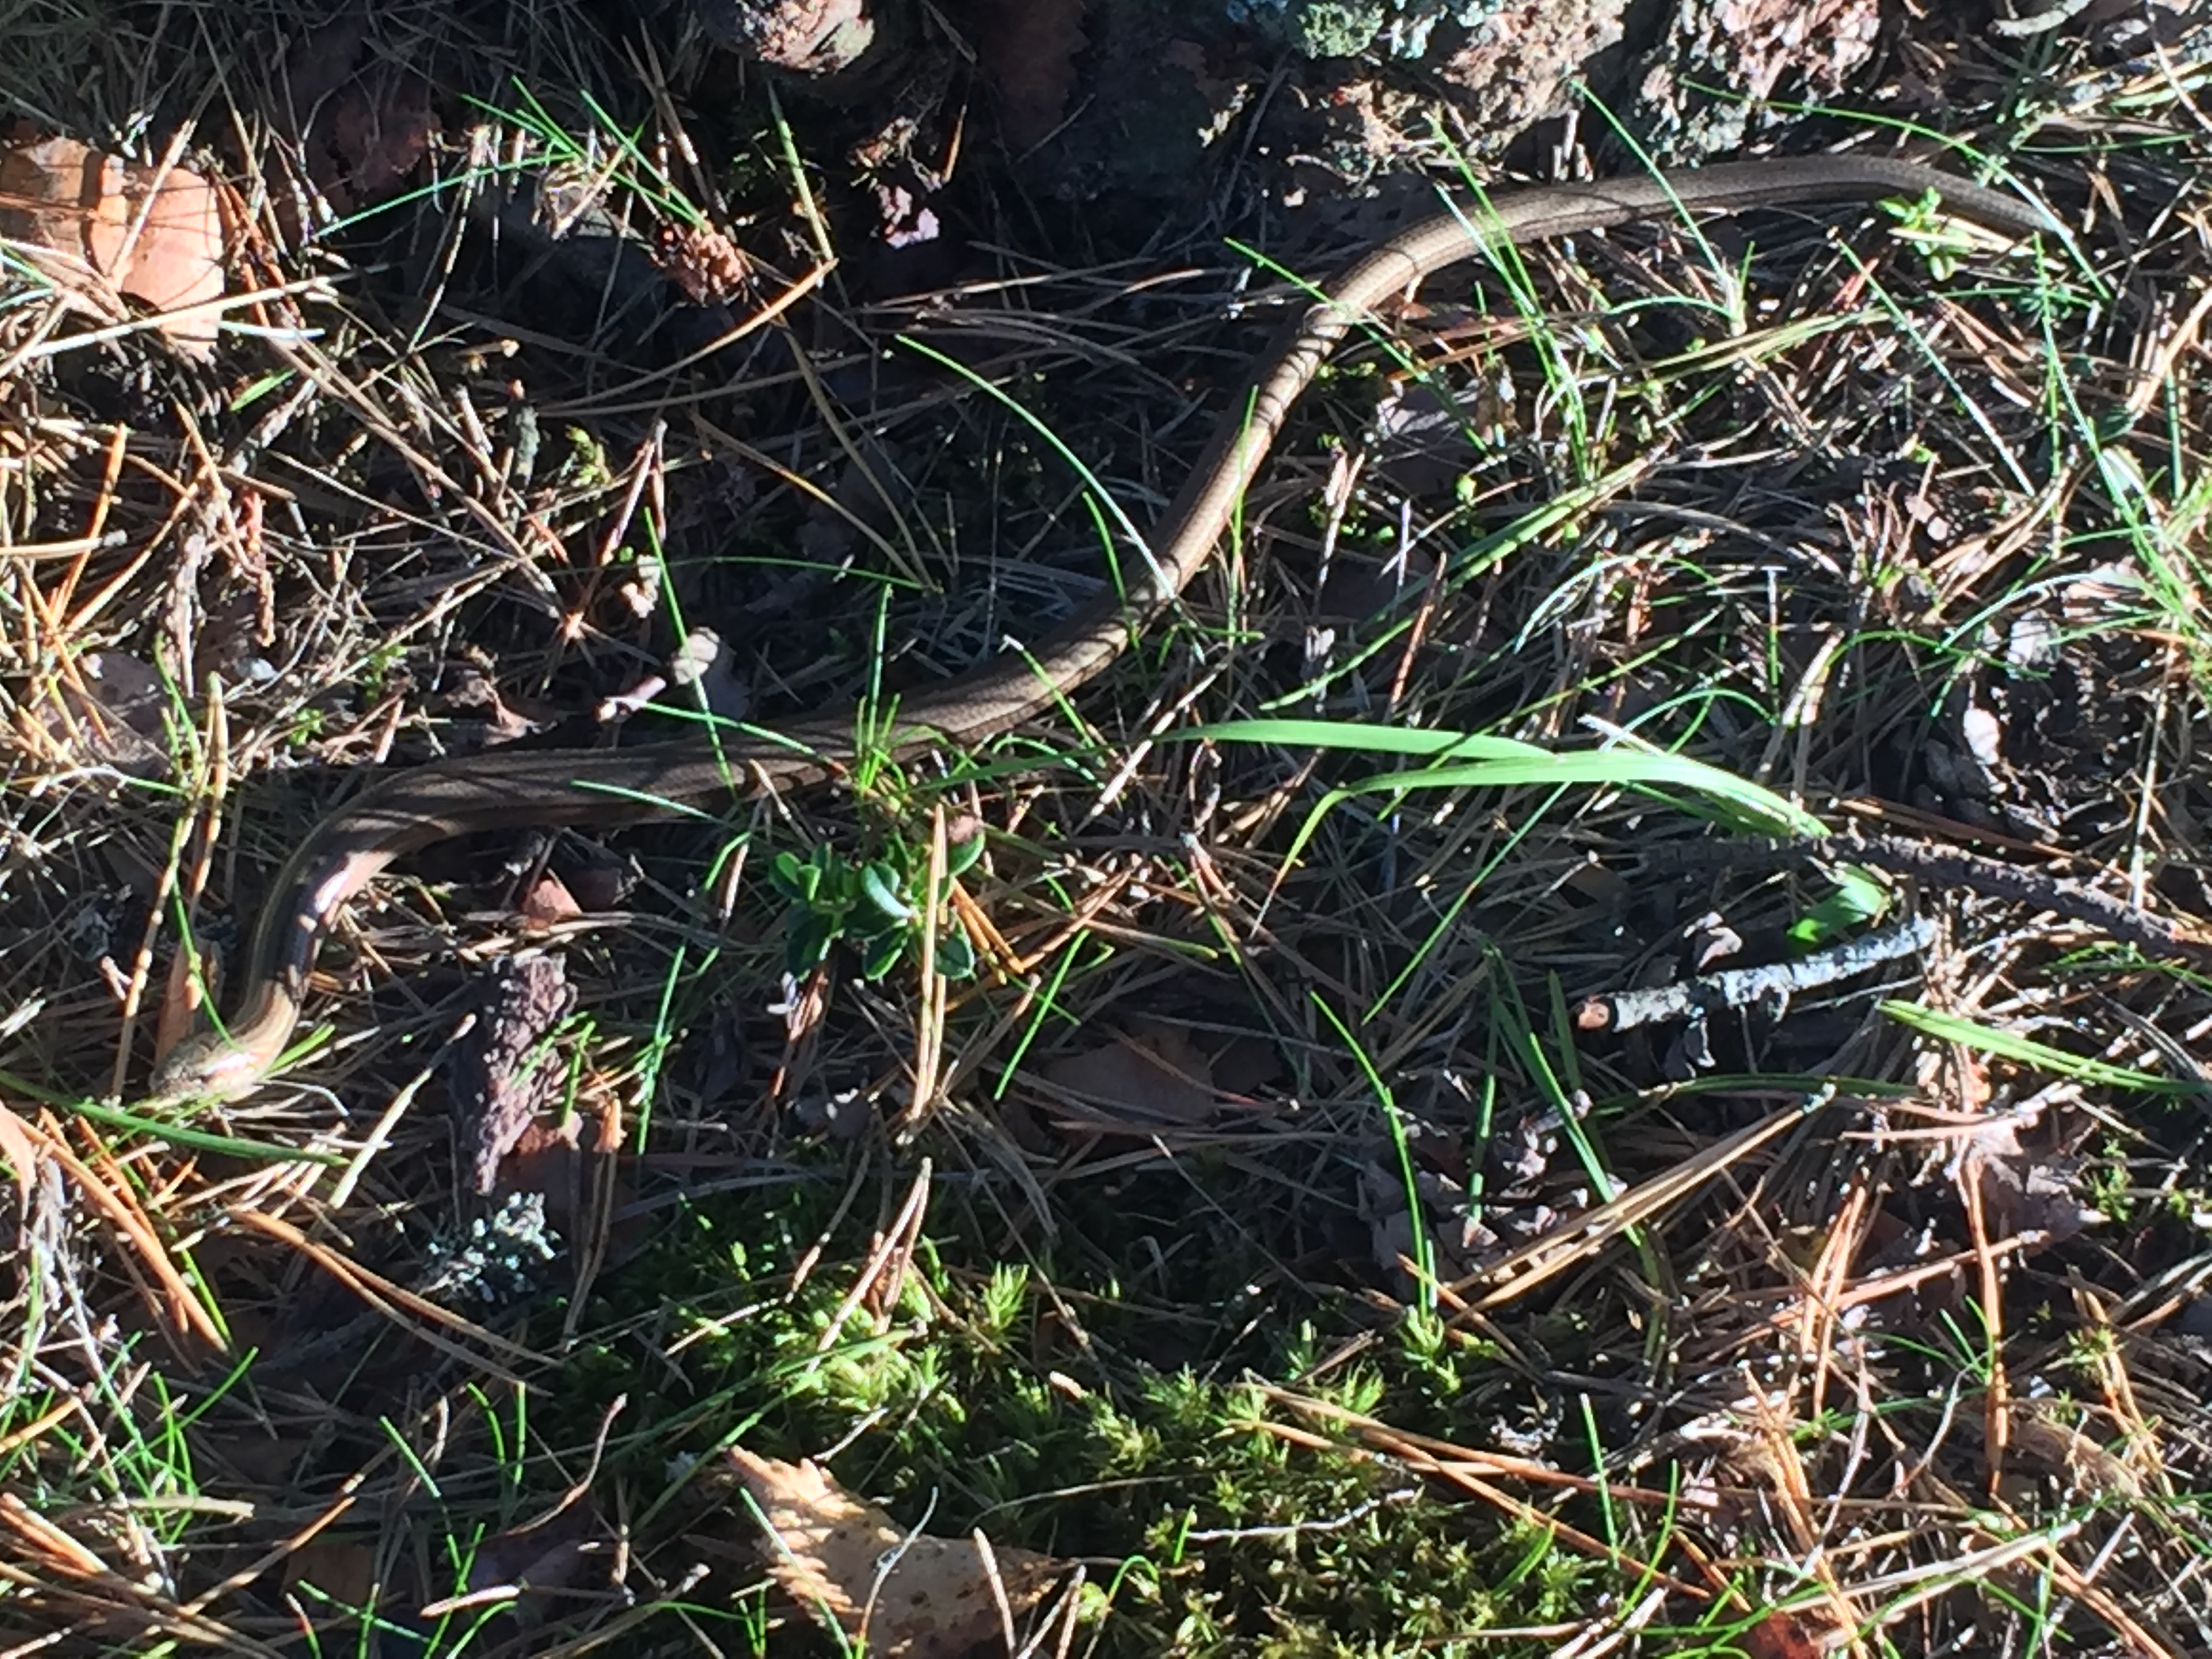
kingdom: Animalia
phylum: Chordata
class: Squamata
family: Anguidae
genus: Anguis
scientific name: Anguis colchica
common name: Slow worm
